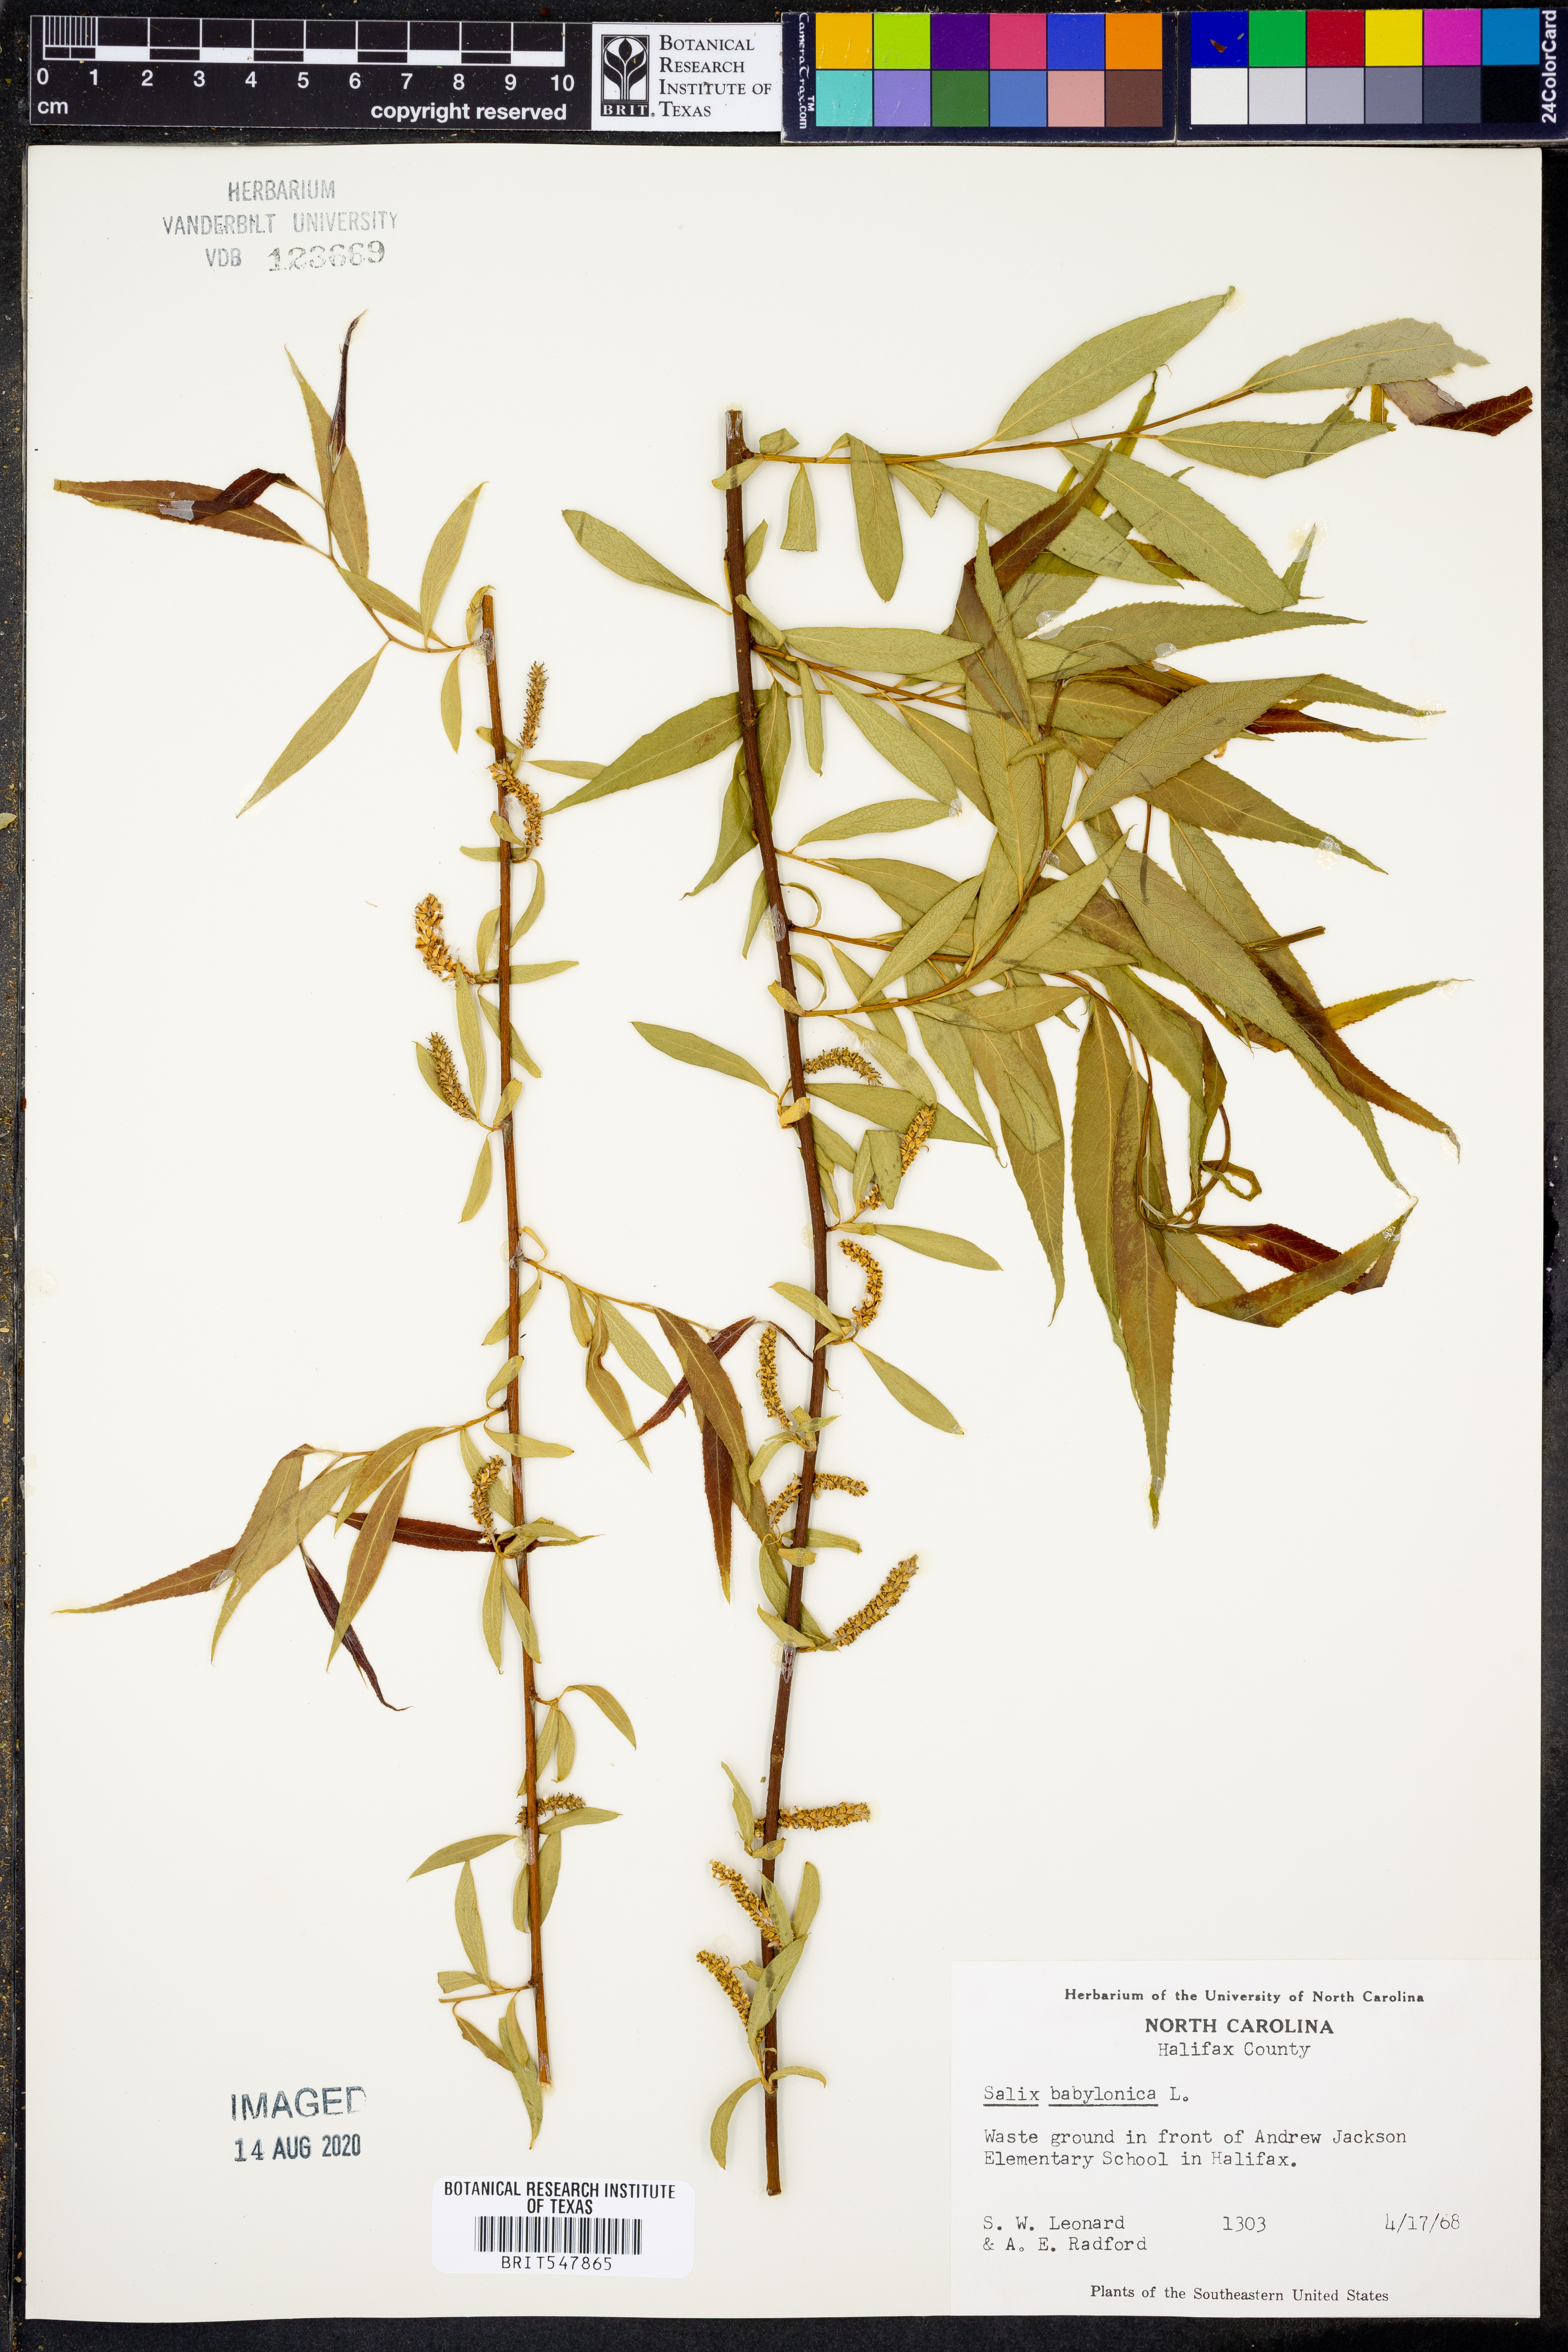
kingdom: Plantae
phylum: Tracheophyta
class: Magnoliopsida
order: Malpighiales
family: Salicaceae
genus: Salix
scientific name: Salix babylonica
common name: Weeping willow
